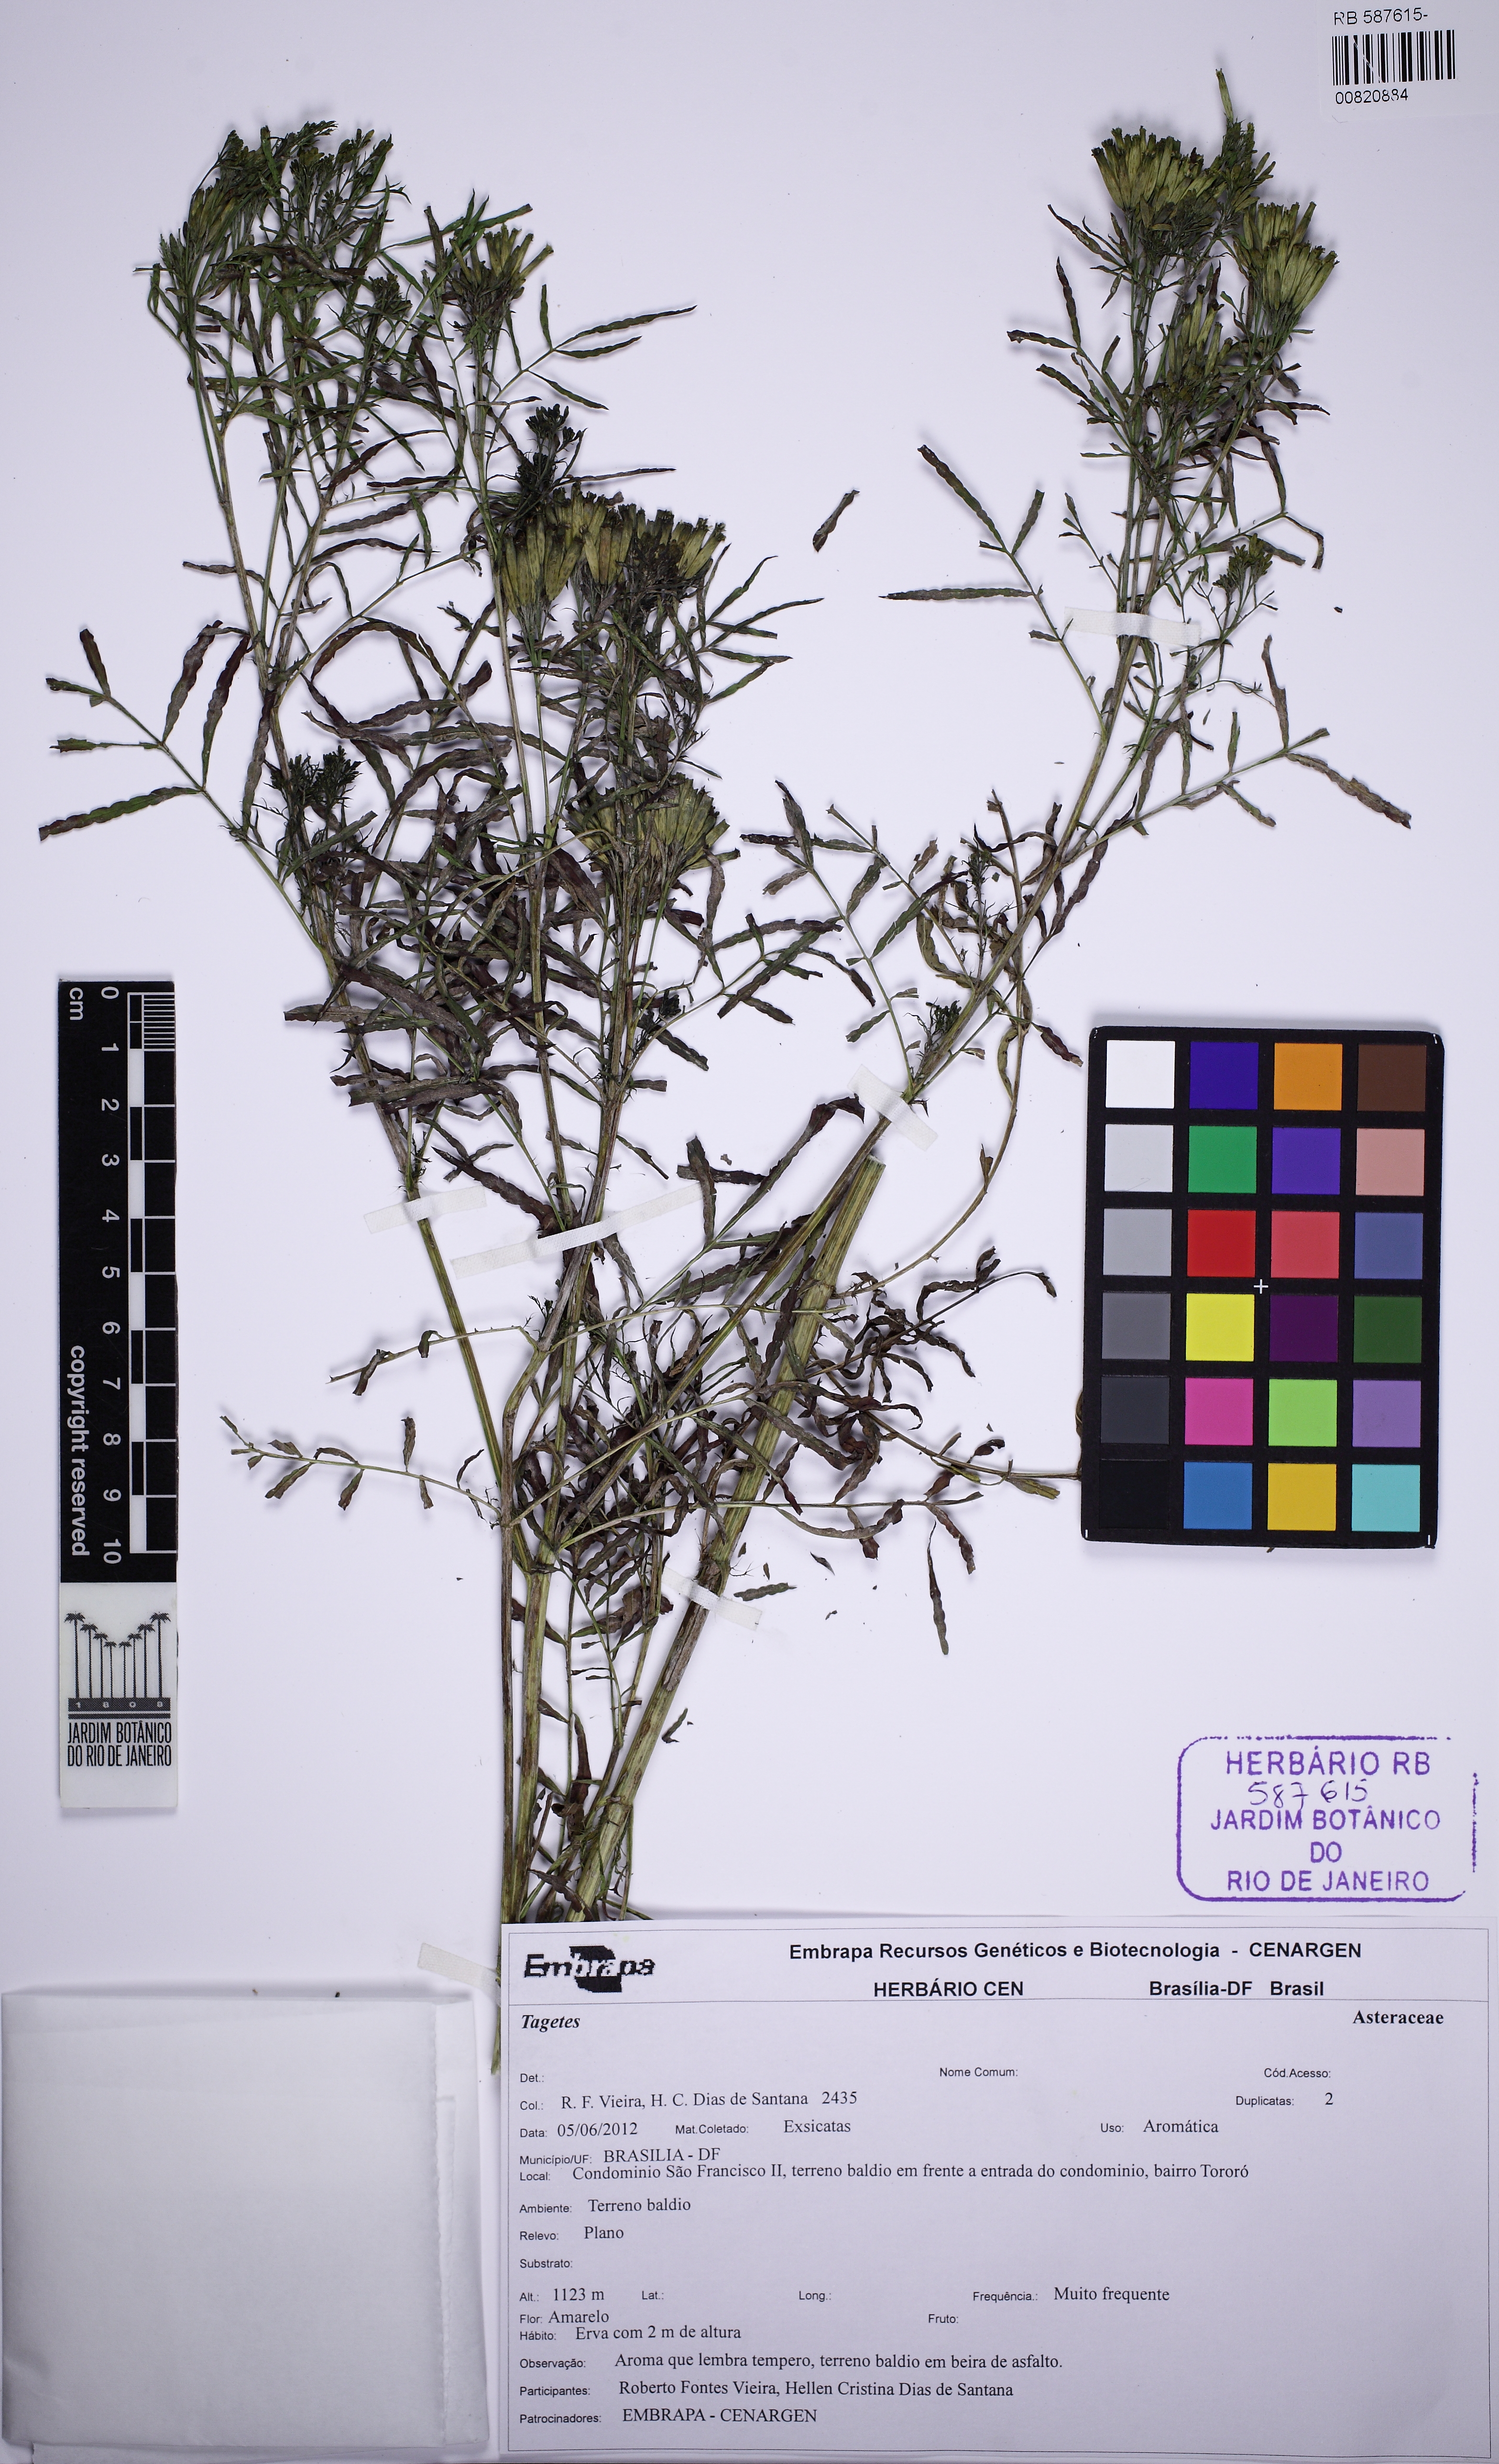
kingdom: Plantae
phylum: Tracheophyta
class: Magnoliopsida
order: Asterales
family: Asteraceae
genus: Tagetes
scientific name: Tagetes minuta
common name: Muster john henry
